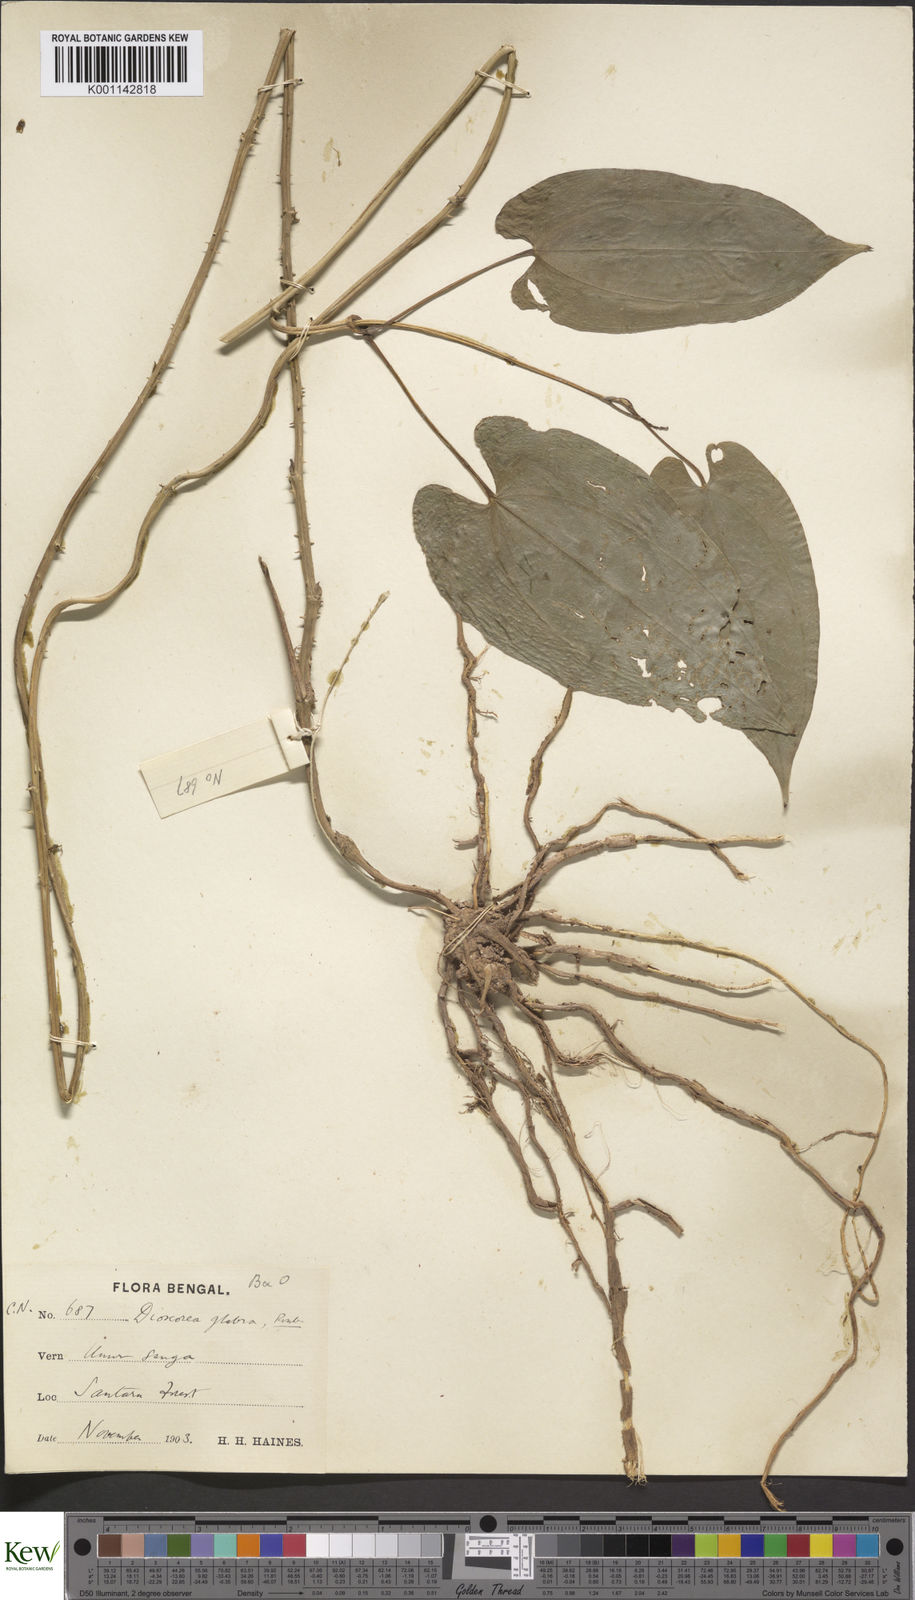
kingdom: Plantae
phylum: Tracheophyta
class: Liliopsida
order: Dioscoreales
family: Dioscoreaceae
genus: Dioscorea
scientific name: Dioscorea
